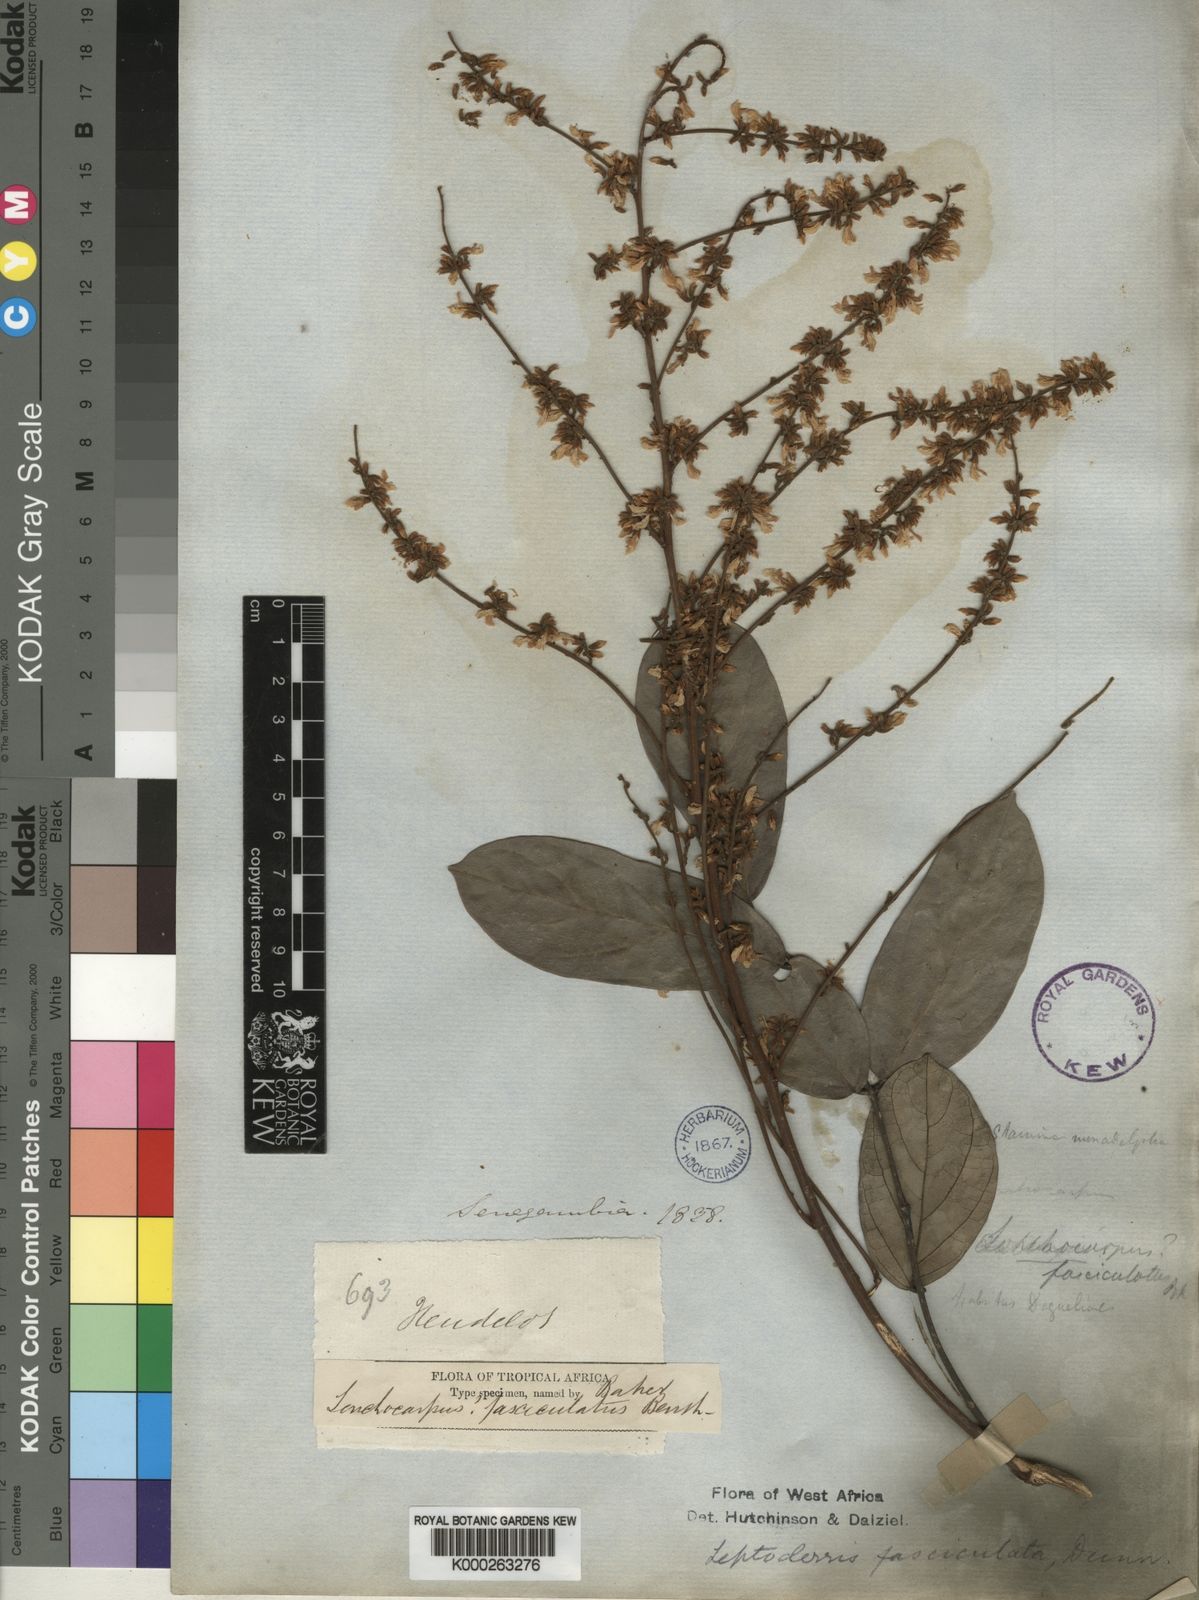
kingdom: Plantae
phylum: Tracheophyta
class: Magnoliopsida
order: Fabales
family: Fabaceae
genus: Leptoderris
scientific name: Leptoderris fasciculata
